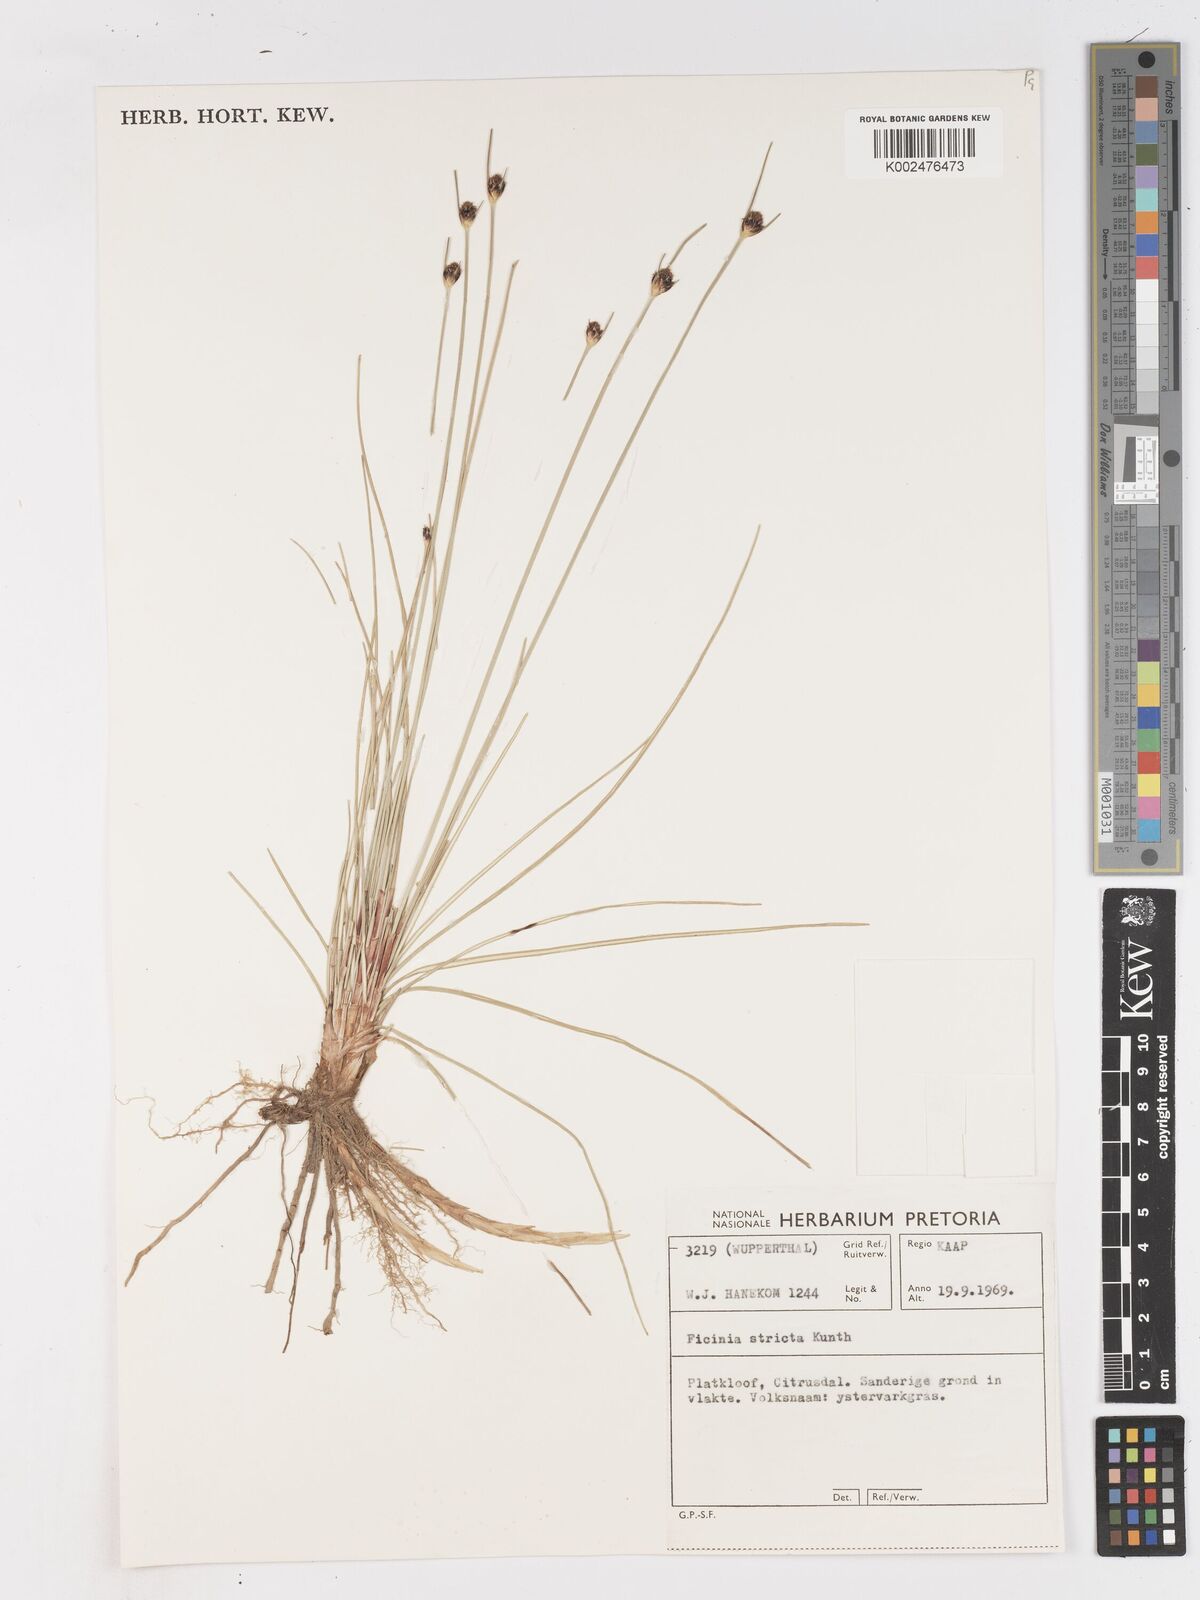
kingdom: Plantae
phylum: Tracheophyta
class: Liliopsida
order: Poales
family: Cyperaceae
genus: Ficinia
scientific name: Ficinia indica
